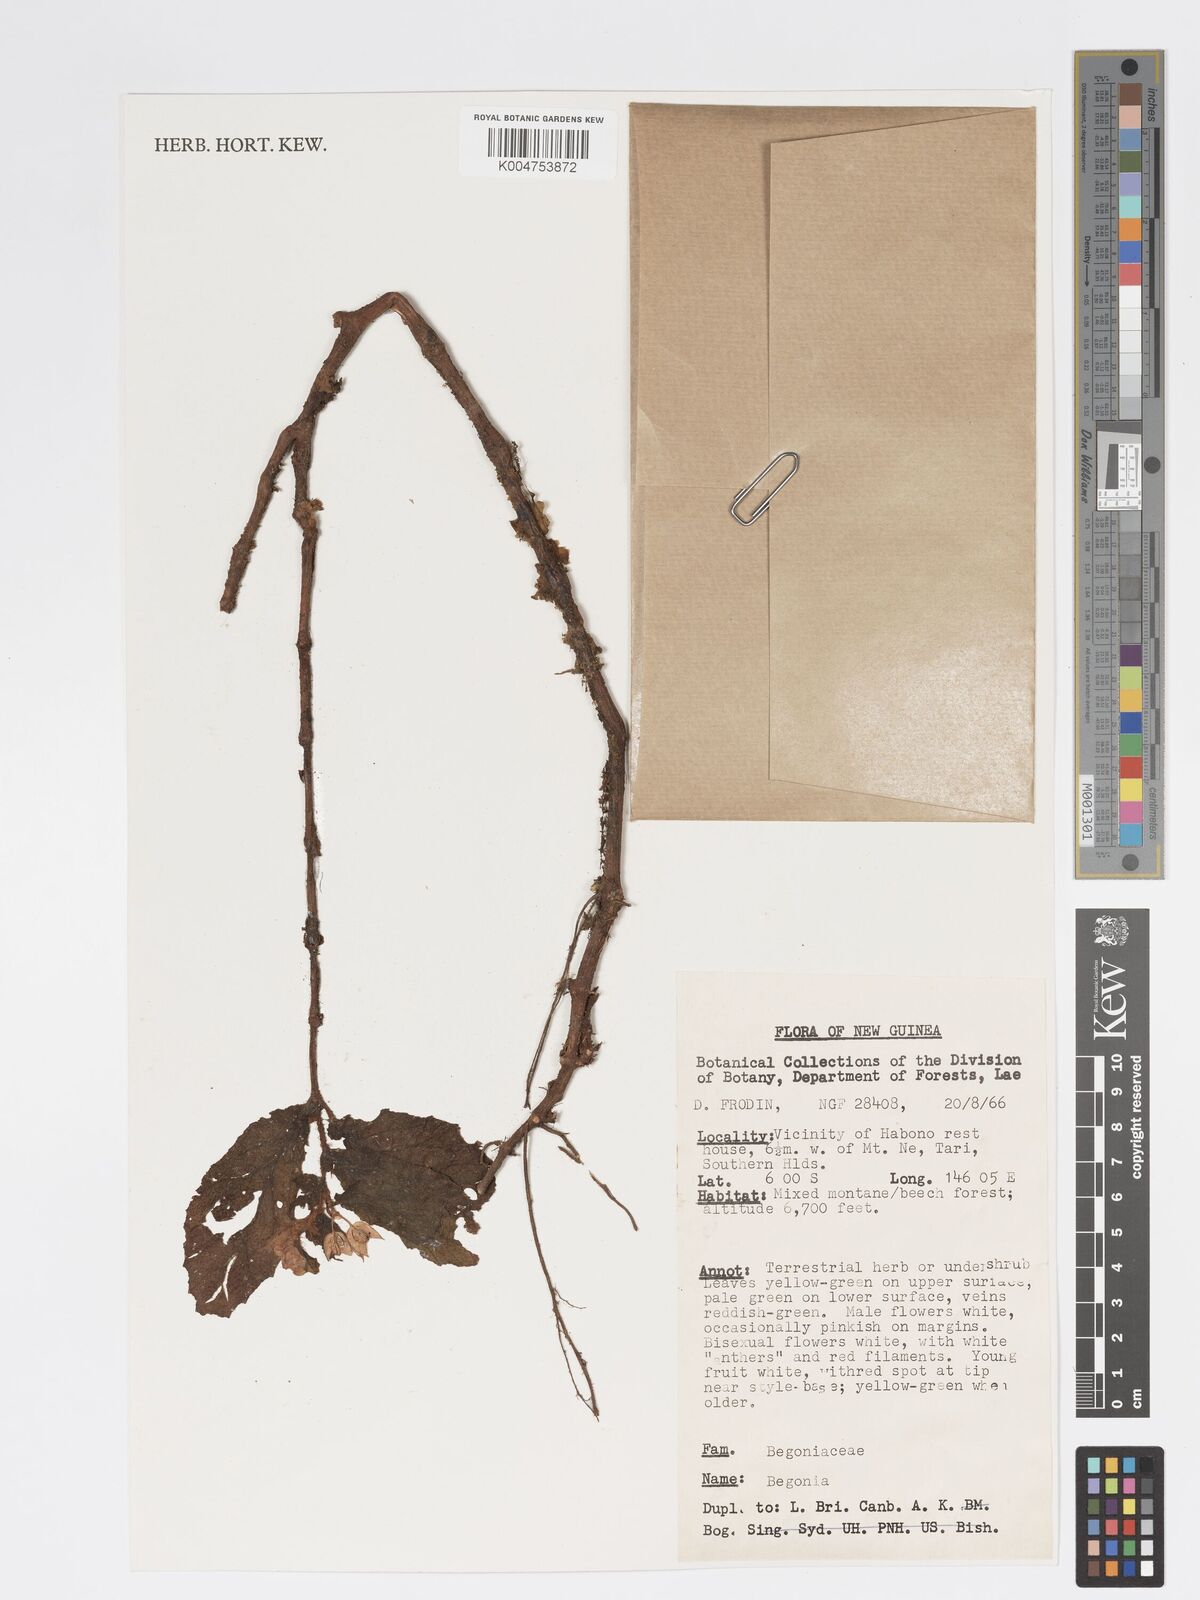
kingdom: Plantae
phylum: Tracheophyta
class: Magnoliopsida
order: Cucurbitales
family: Begoniaceae
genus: Begonia
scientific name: Begonia
